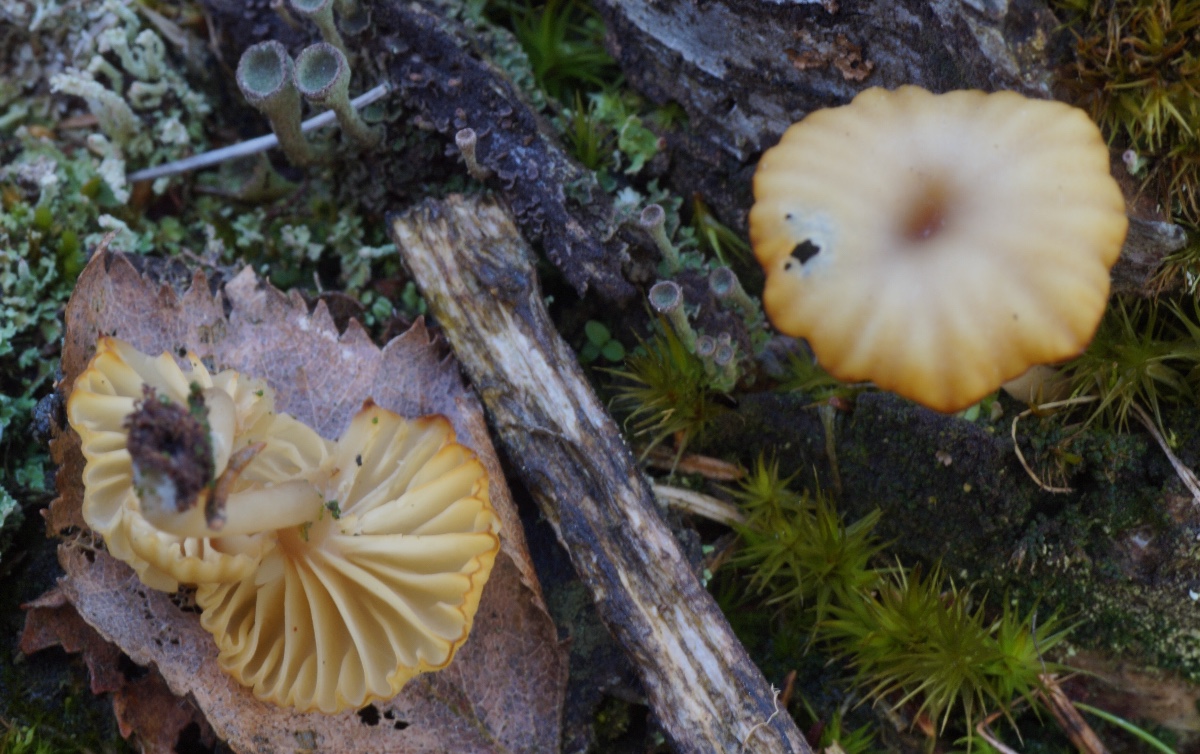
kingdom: Fungi
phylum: Basidiomycota
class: Agaricomycetes
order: Agaricales
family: Hygrophoraceae
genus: Lichenomphalia
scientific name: Lichenomphalia umbellifera
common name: tørve-lavhat
